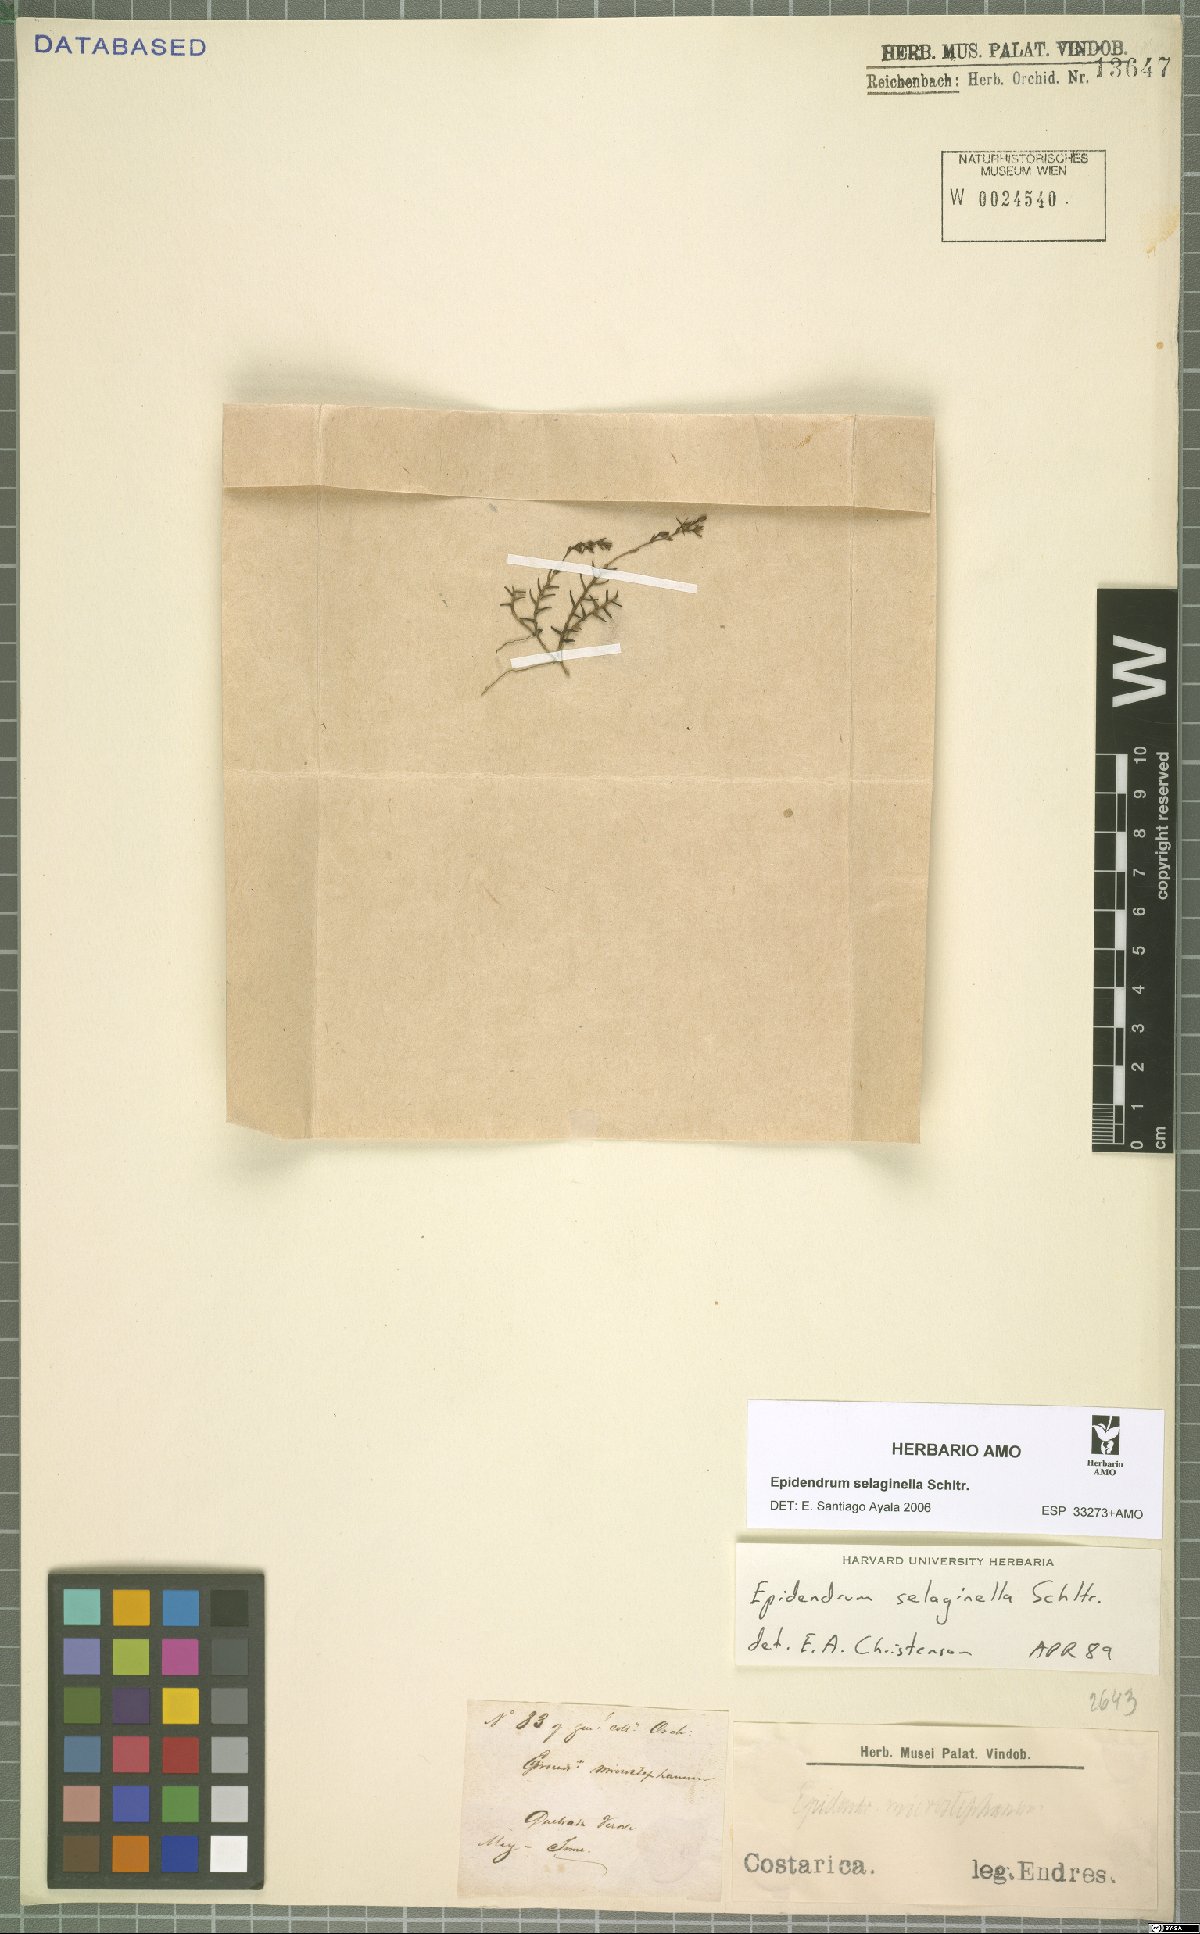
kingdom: Plantae
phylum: Tracheophyta
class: Liliopsida
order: Asparagales
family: Orchidaceae
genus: Epidendrum
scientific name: Epidendrum selaginella
